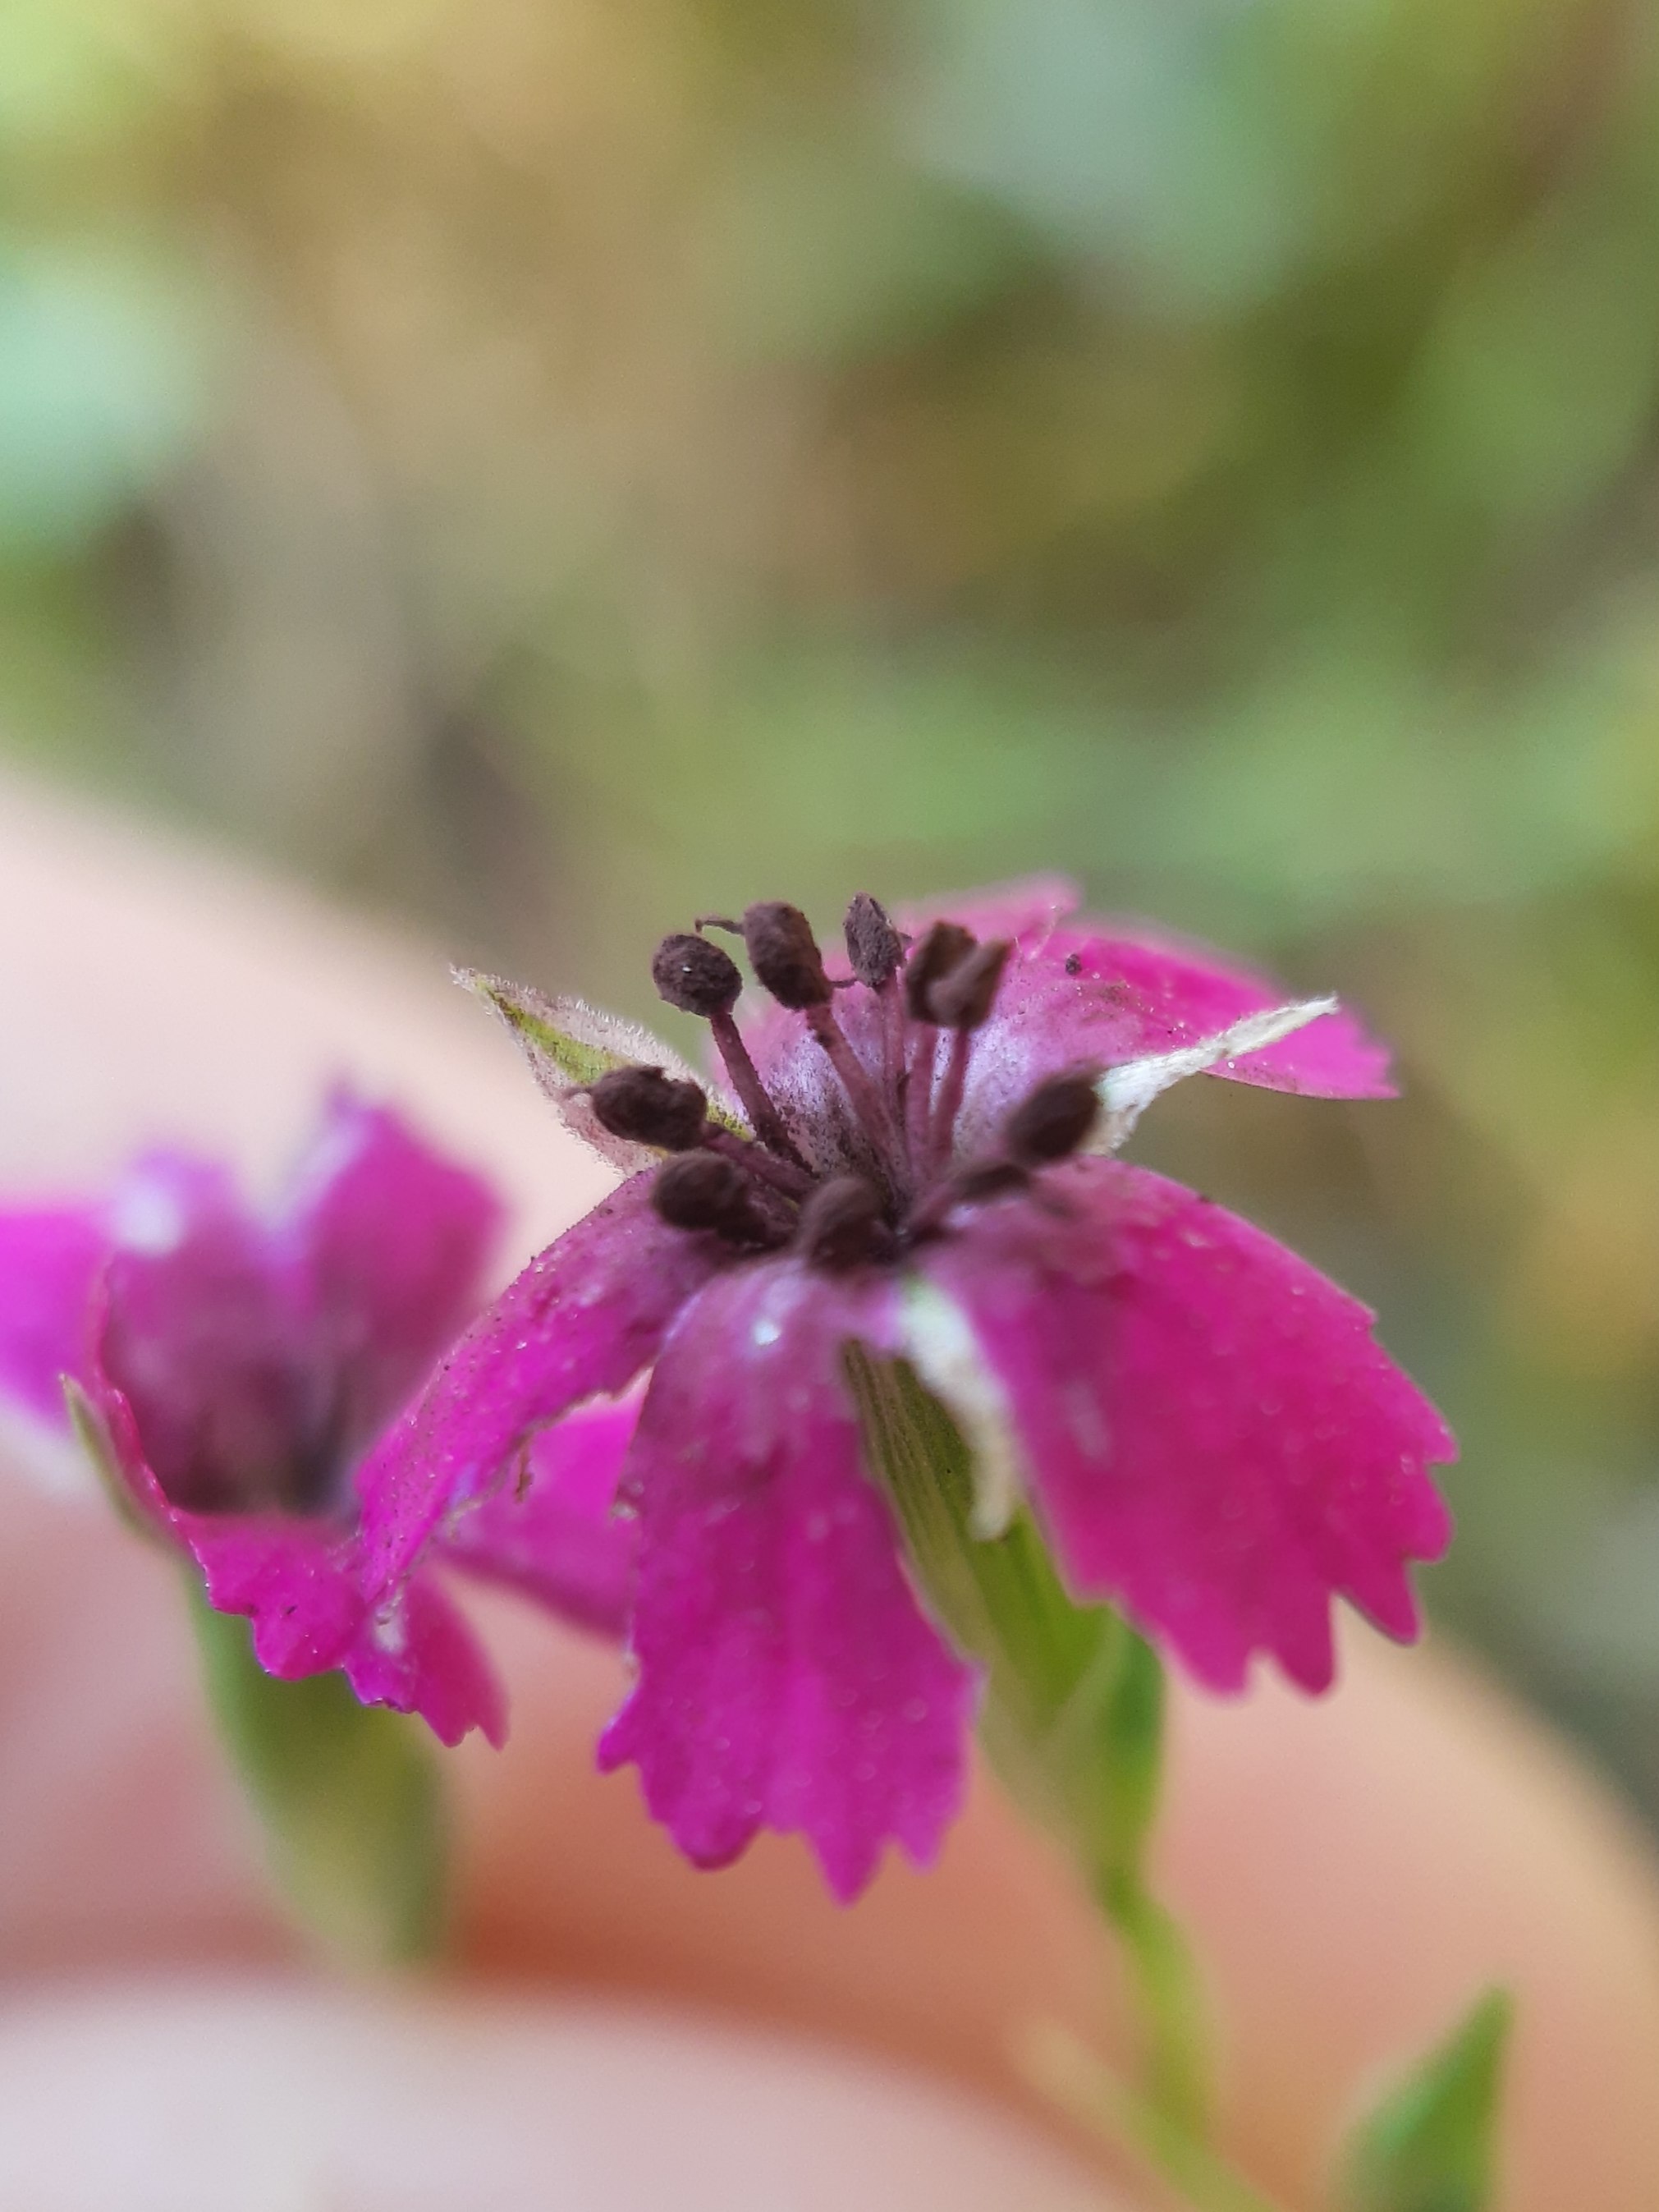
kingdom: Fungi
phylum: Basidiomycota
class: Microbotryomycetes
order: Microbotryales
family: Microbotryaceae
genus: Microbotryum
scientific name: Microbotryum dianthorum
